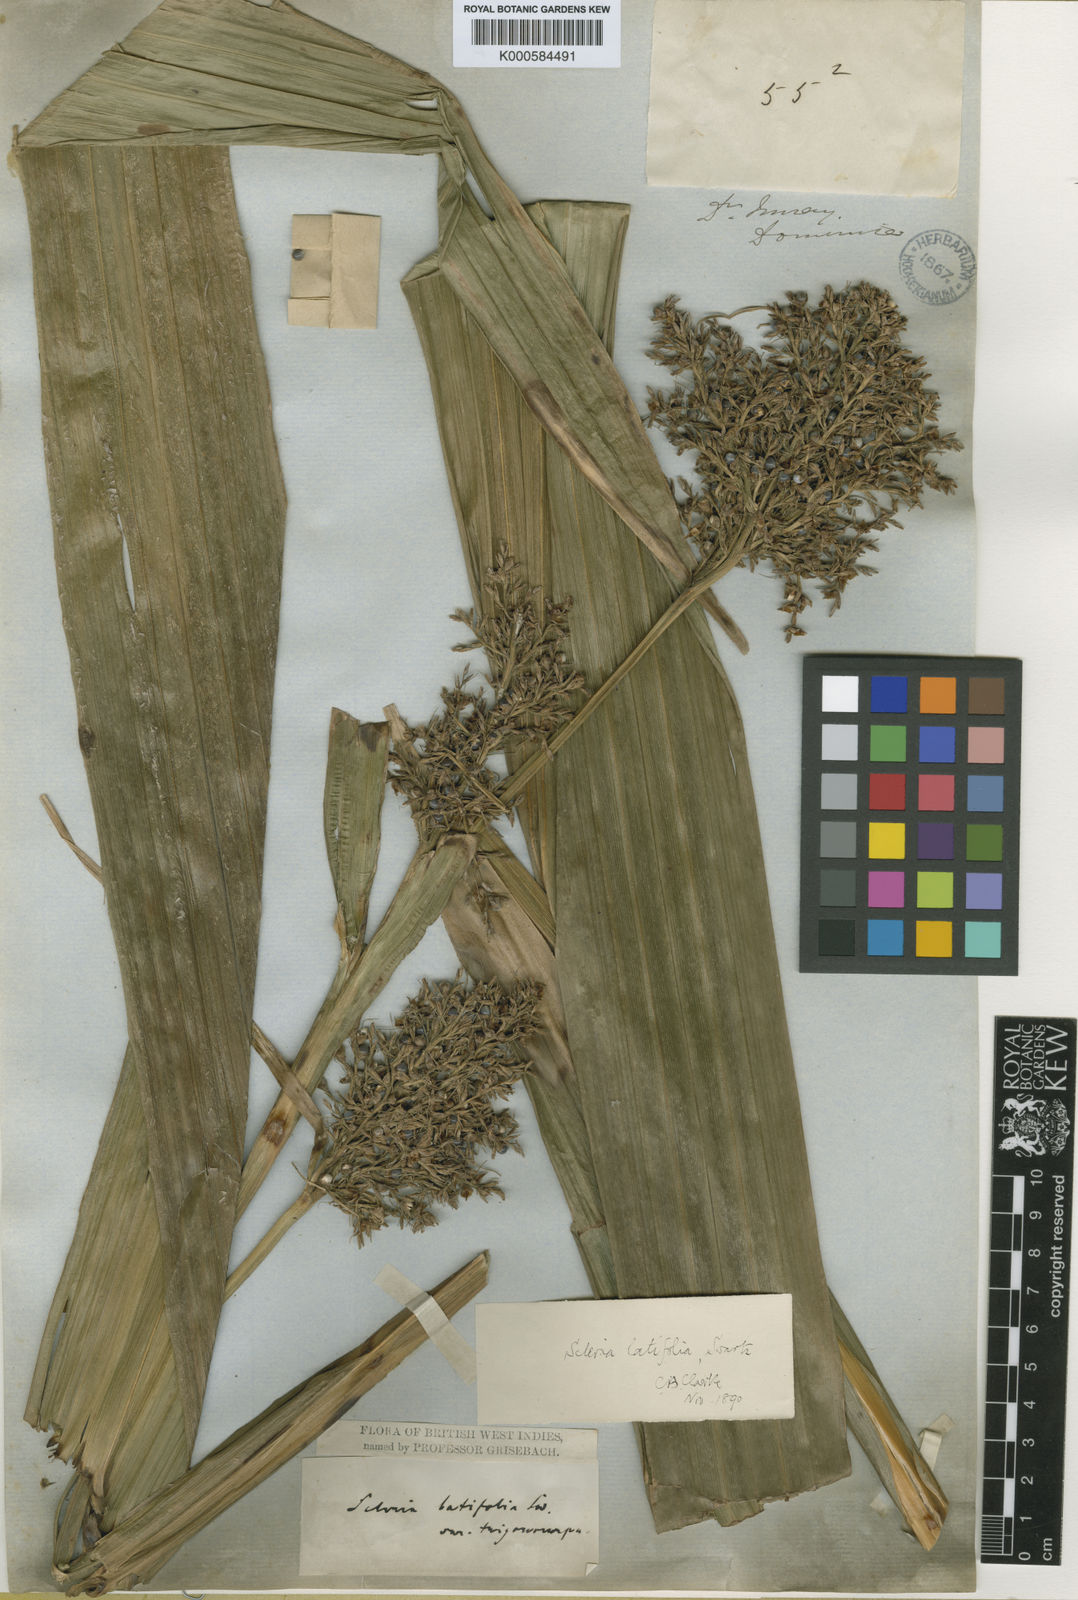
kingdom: Plantae
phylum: Tracheophyta
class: Liliopsida
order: Poales
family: Cyperaceae
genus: Scleria
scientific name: Scleria latifolia
